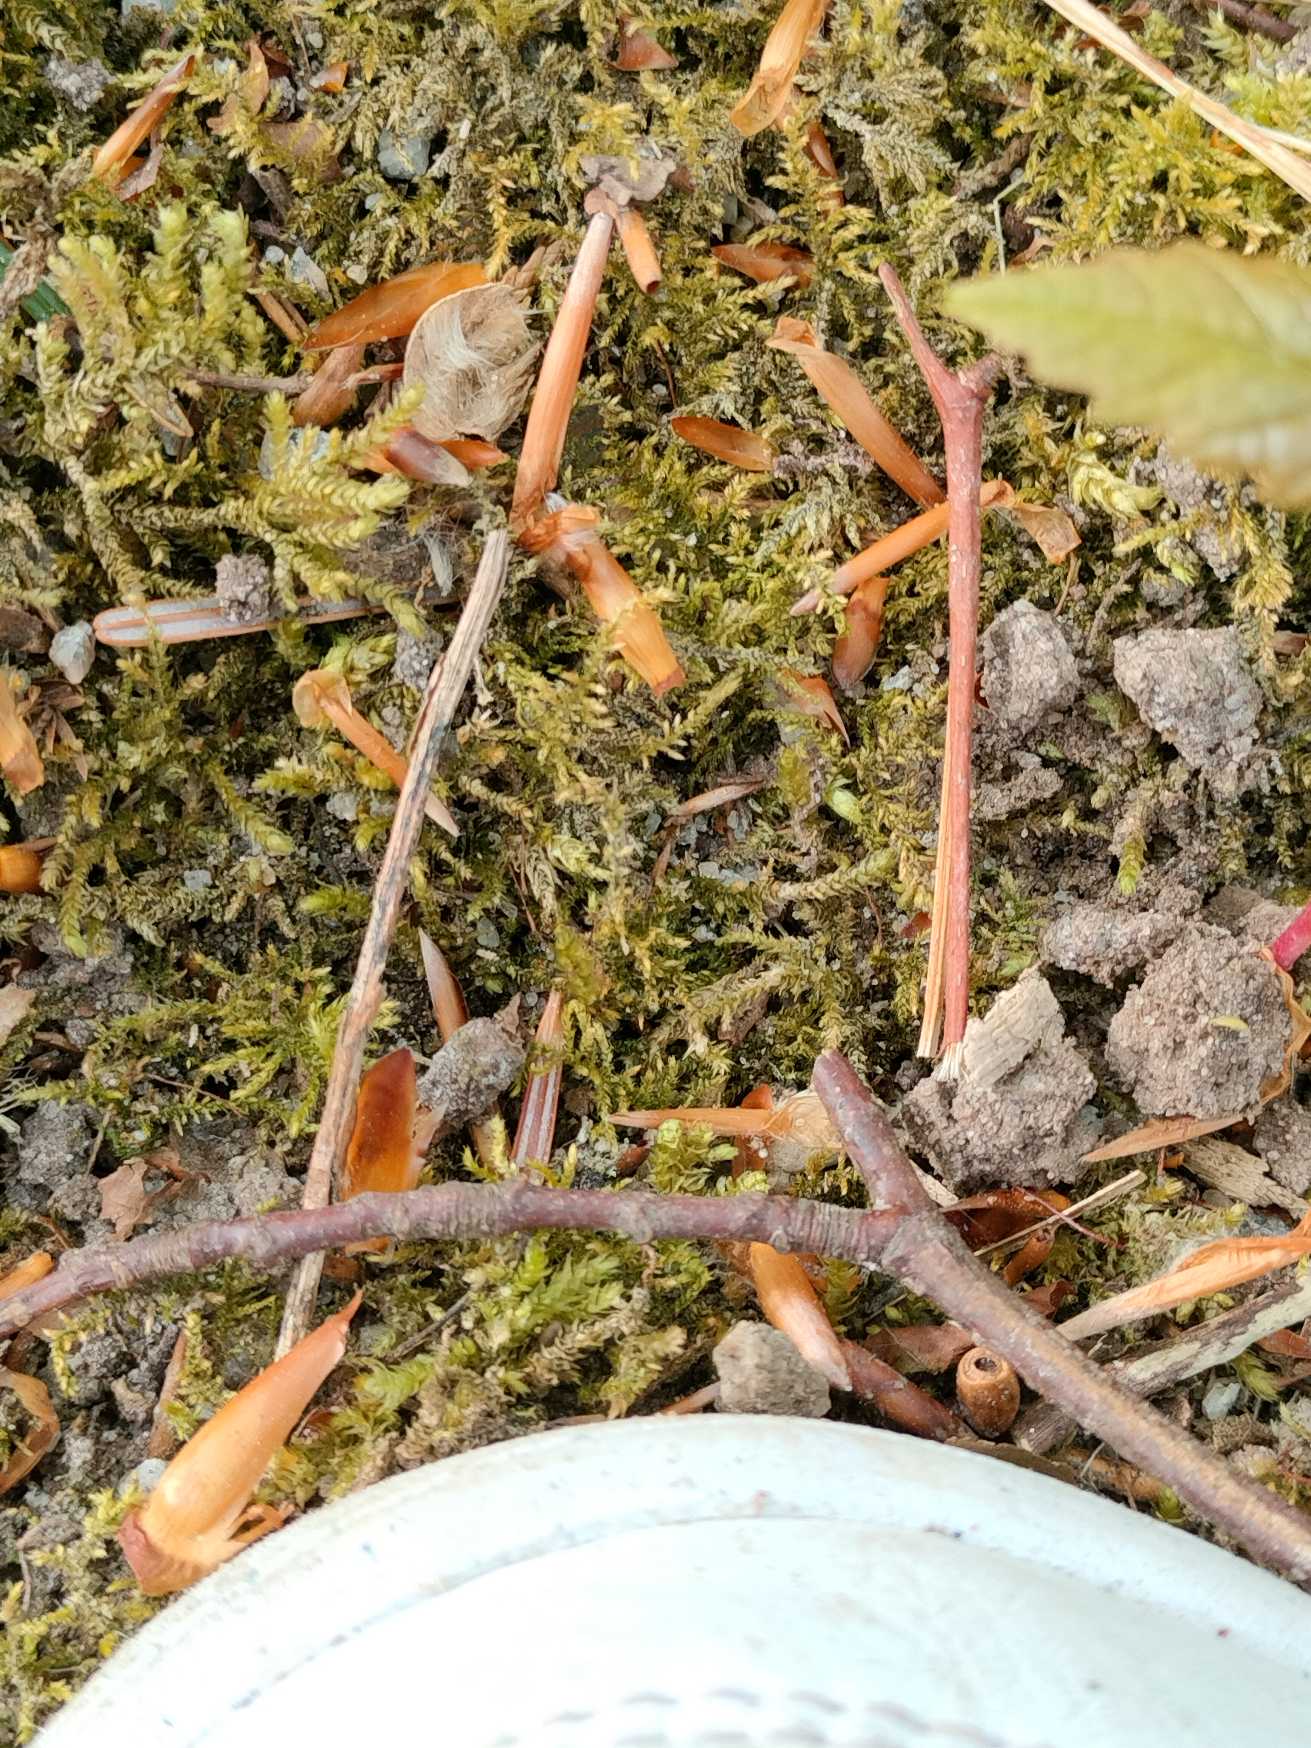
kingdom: Plantae
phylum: Bryophyta
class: Bryopsida
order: Hypnales
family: Brachytheciaceae
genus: Kindbergia
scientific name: Kindbergia praelonga
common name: Forskelligbladet vortetand
